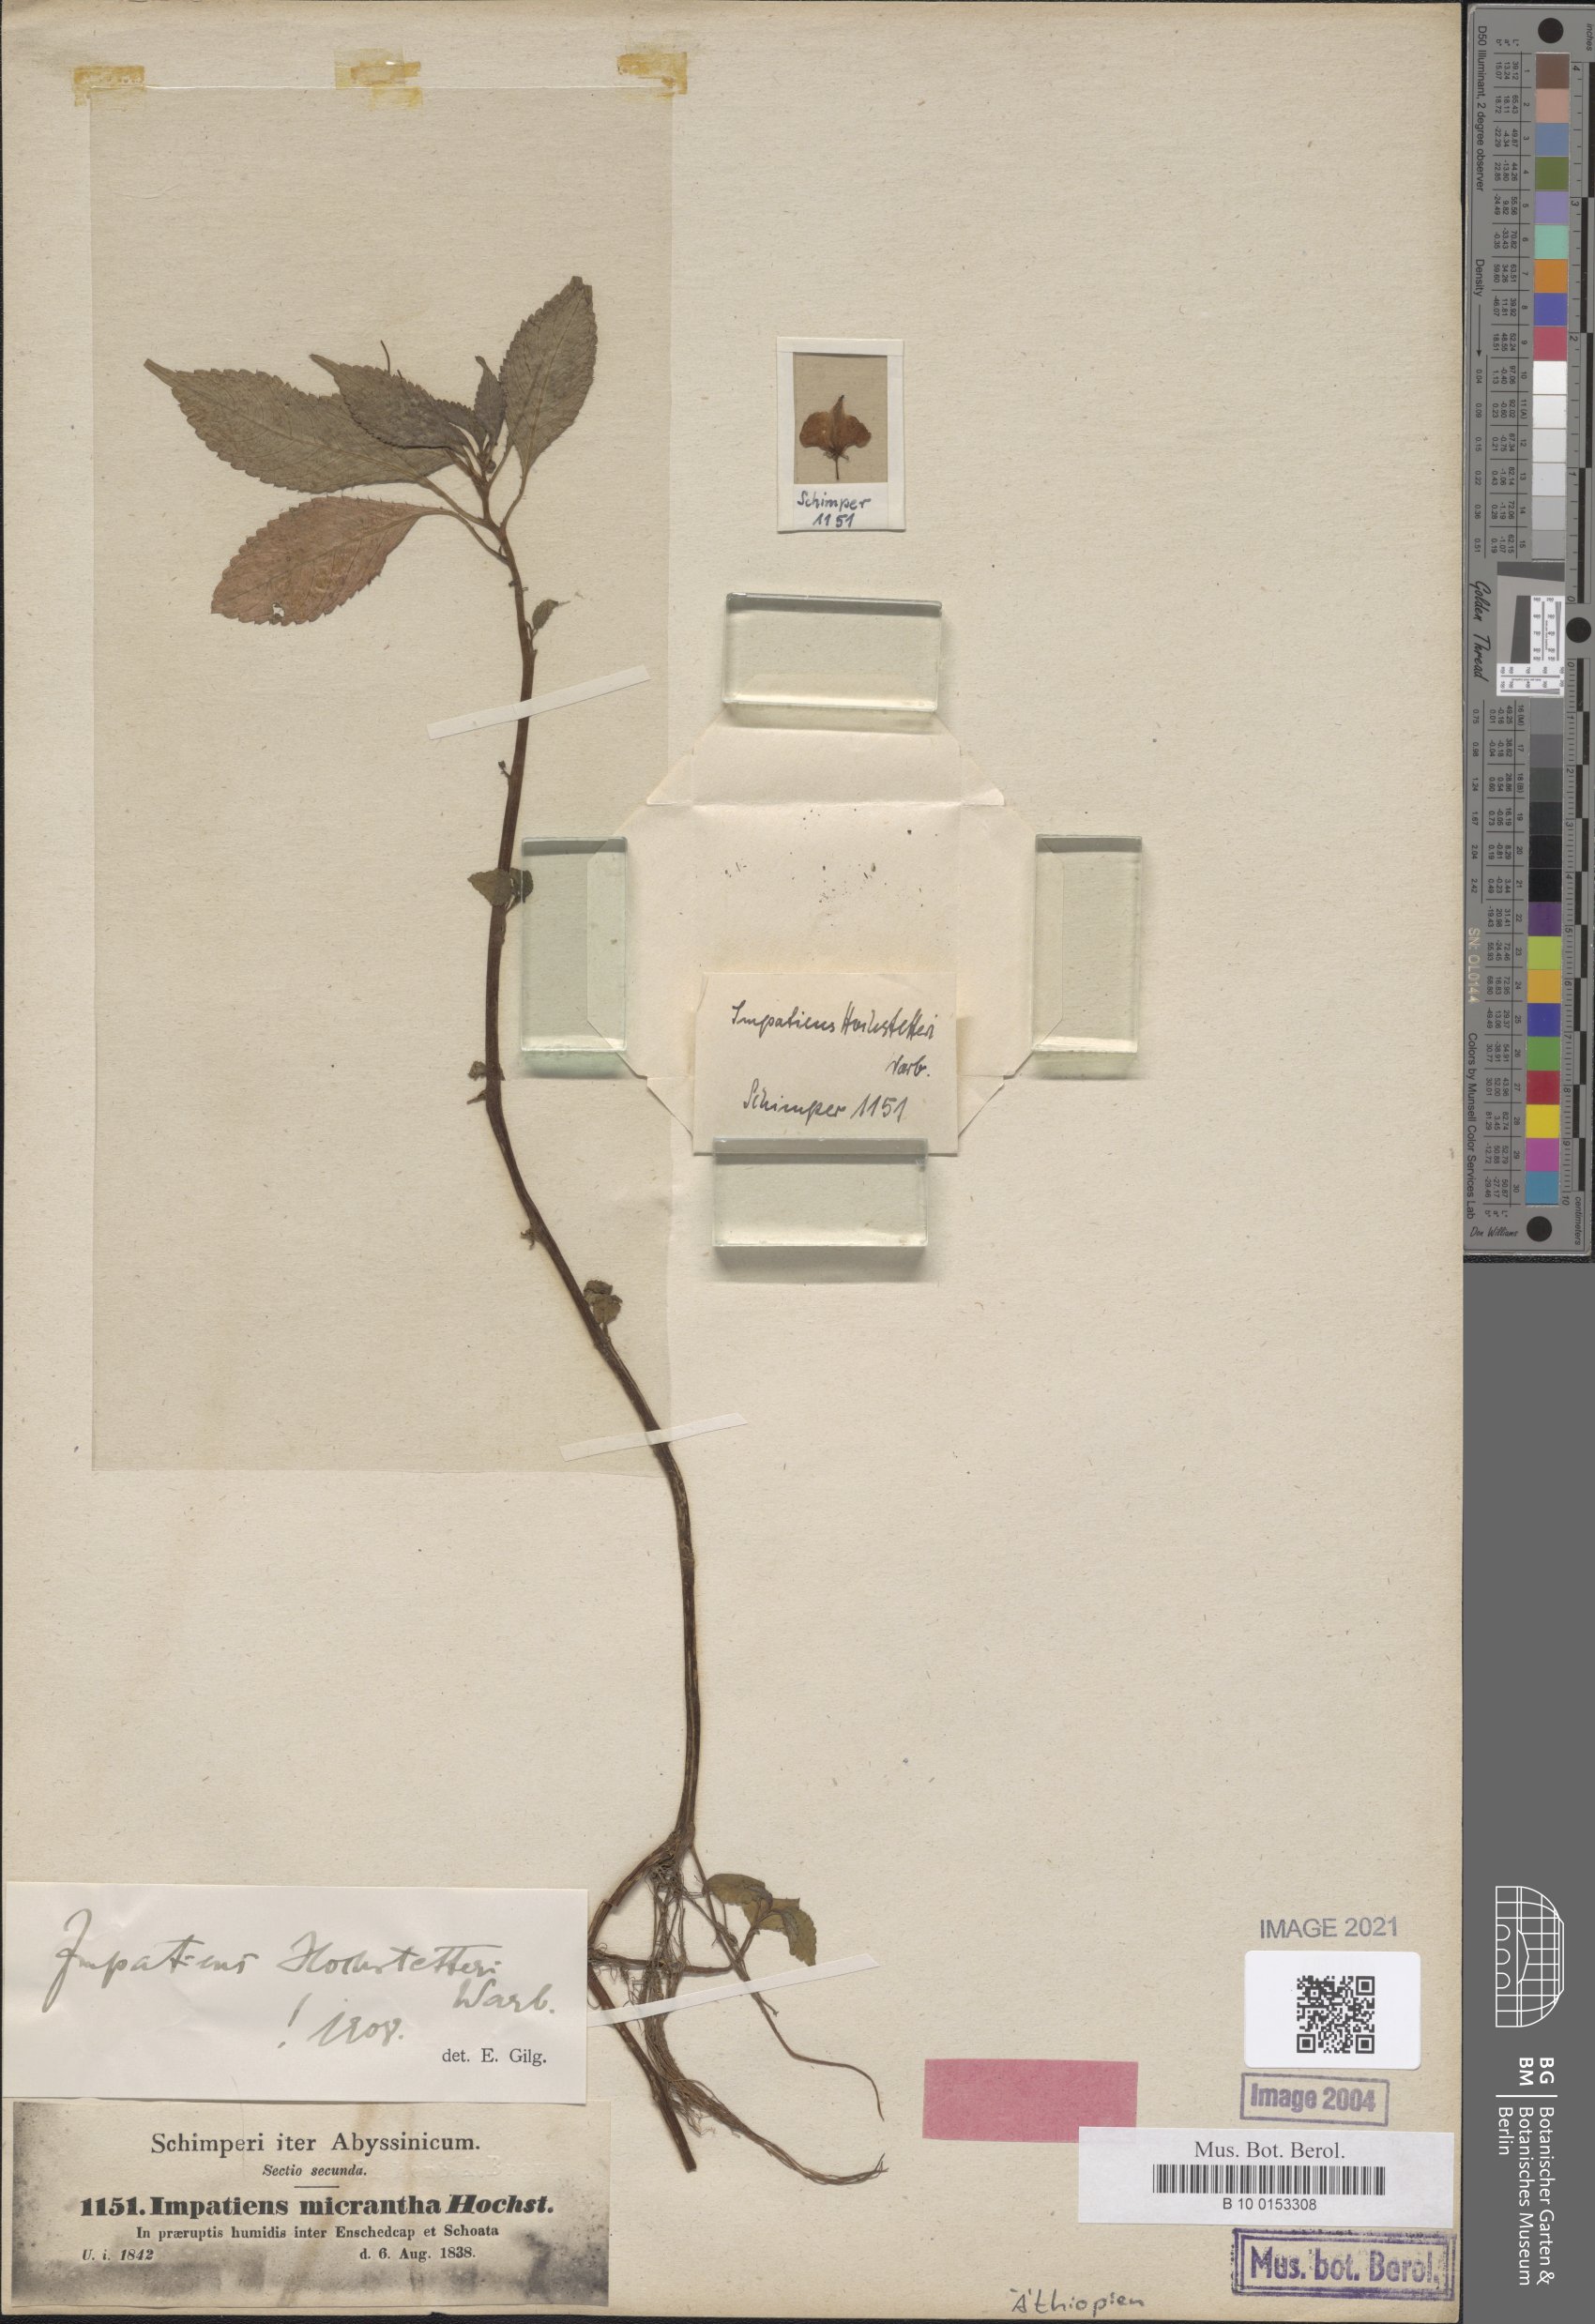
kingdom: Plantae
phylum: Tracheophyta
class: Magnoliopsida
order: Ericales
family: Balsaminaceae
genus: Impatiens
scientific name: Impatiens hochstetteri
